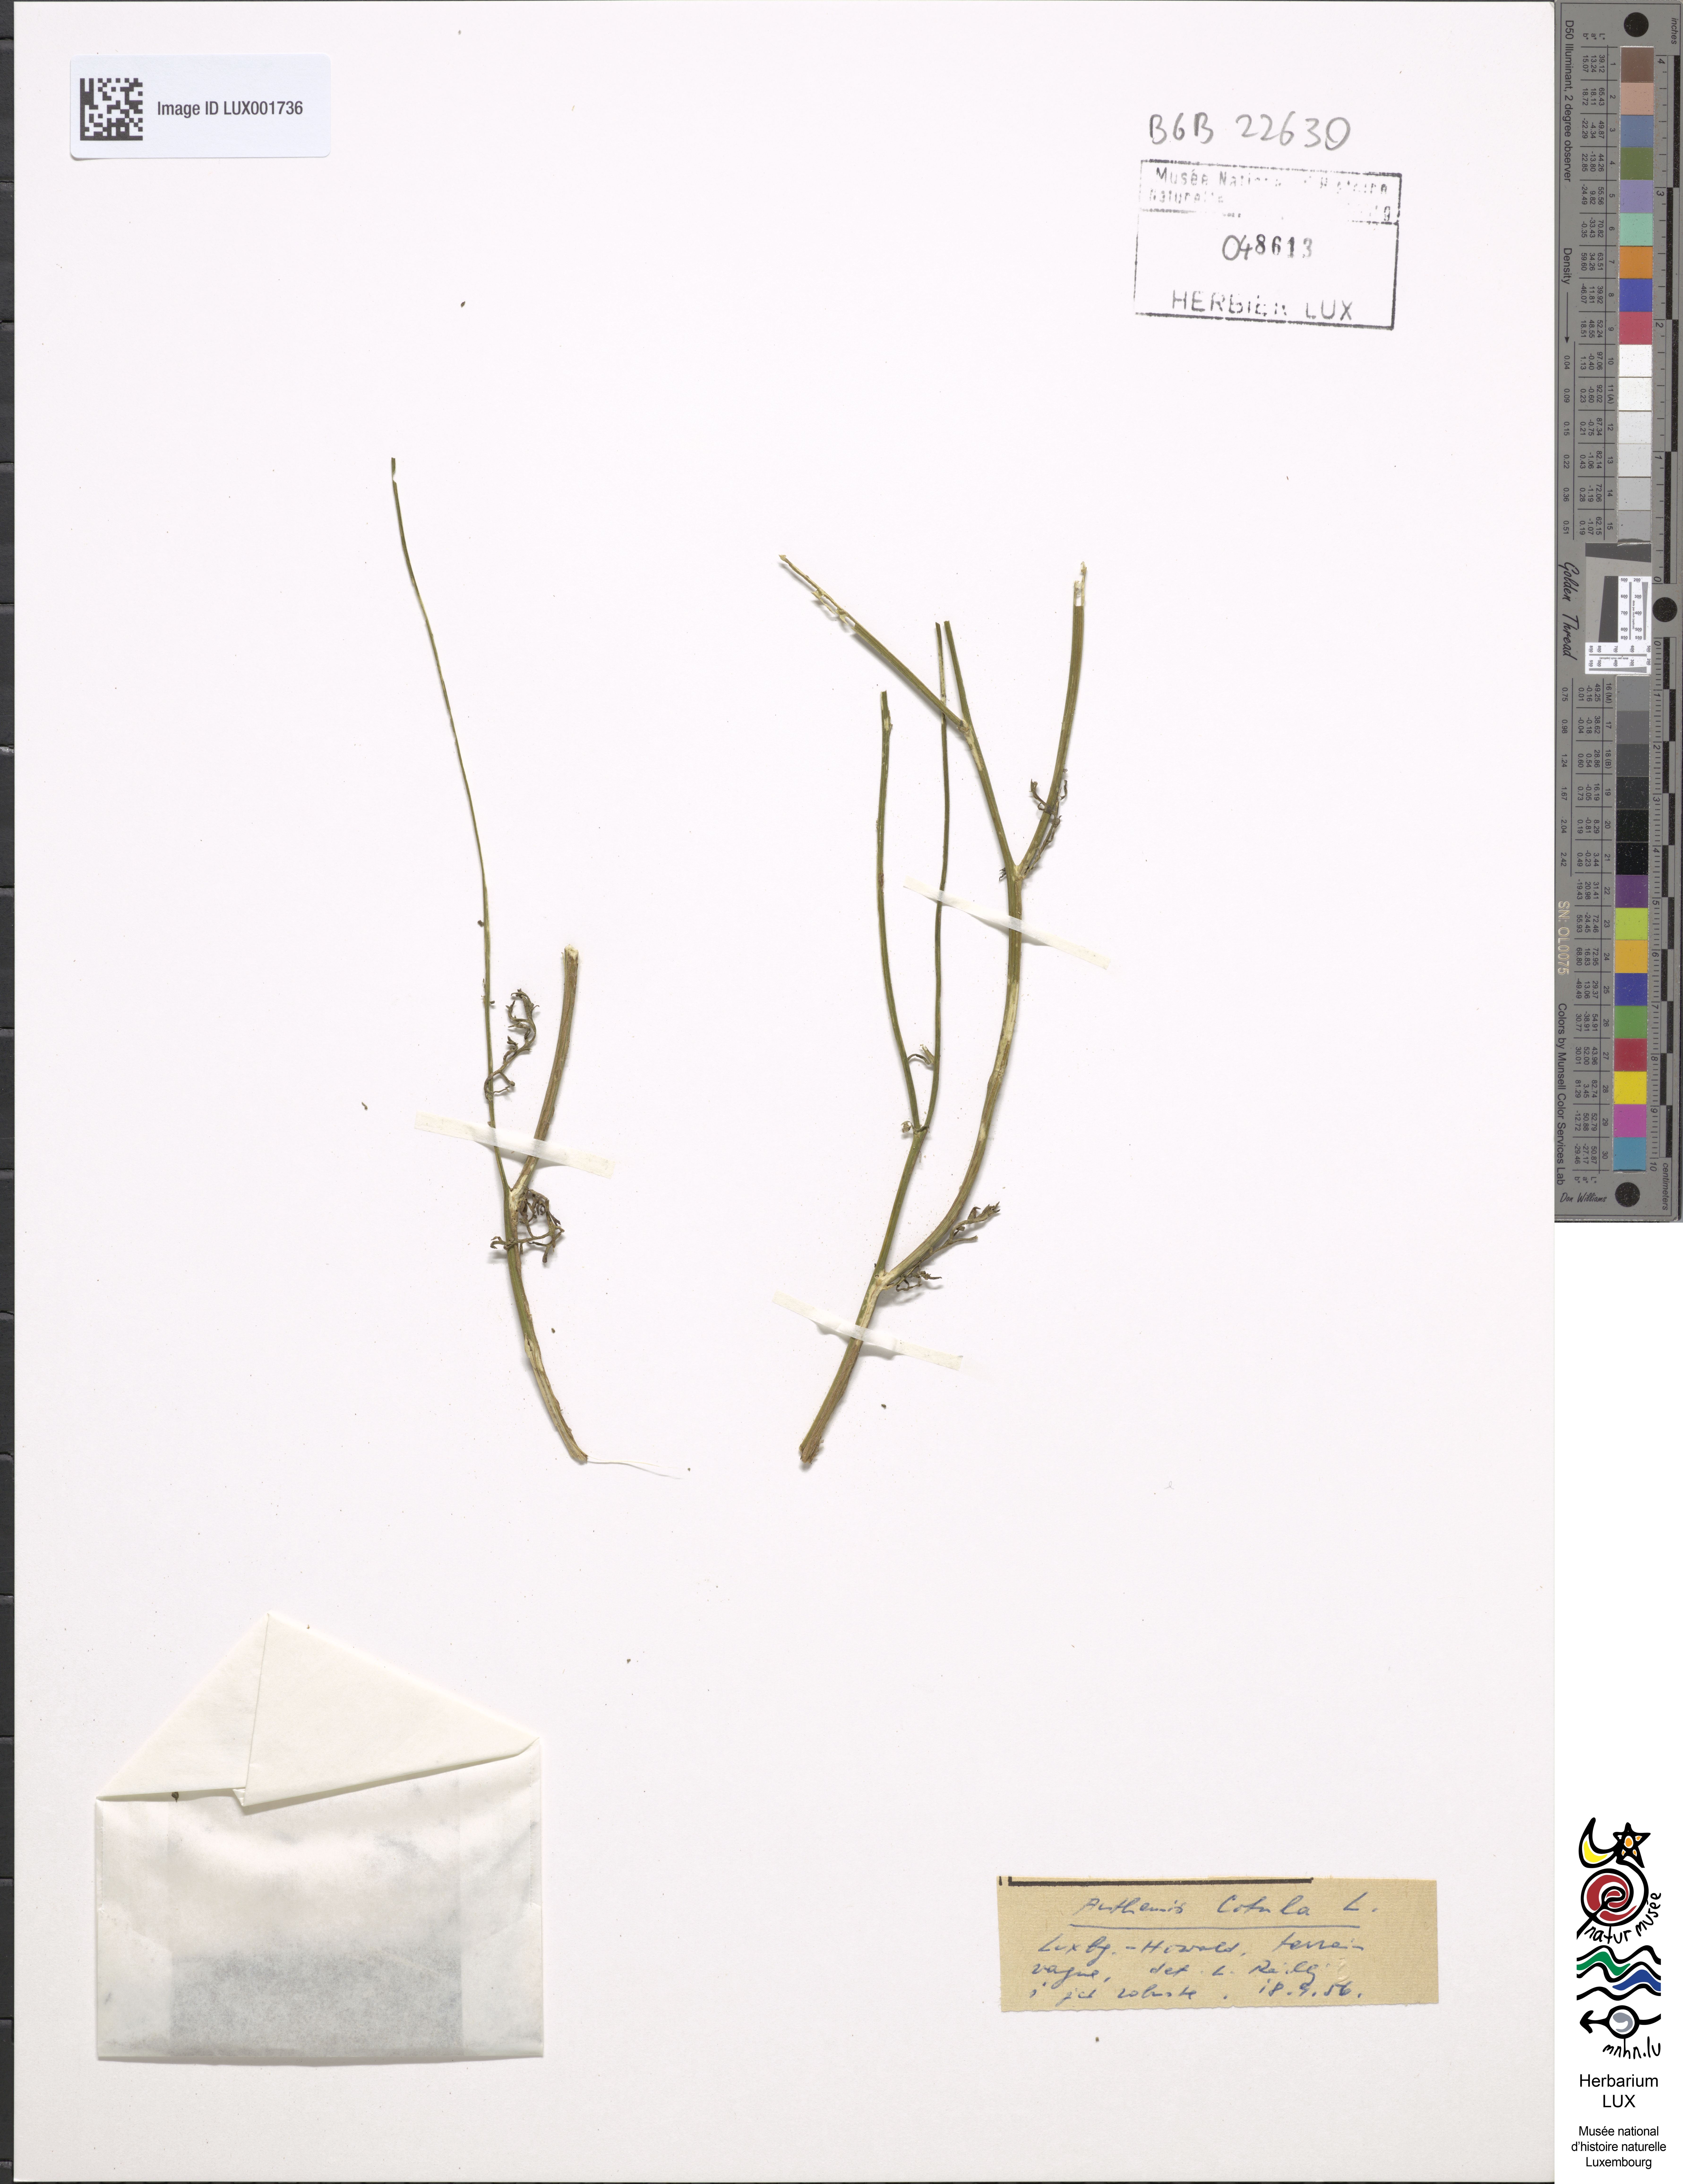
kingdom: Plantae
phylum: Tracheophyta
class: Magnoliopsida
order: Asterales
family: Asteraceae
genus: Anthemis
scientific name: Anthemis cotula
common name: Stinking chamomile
